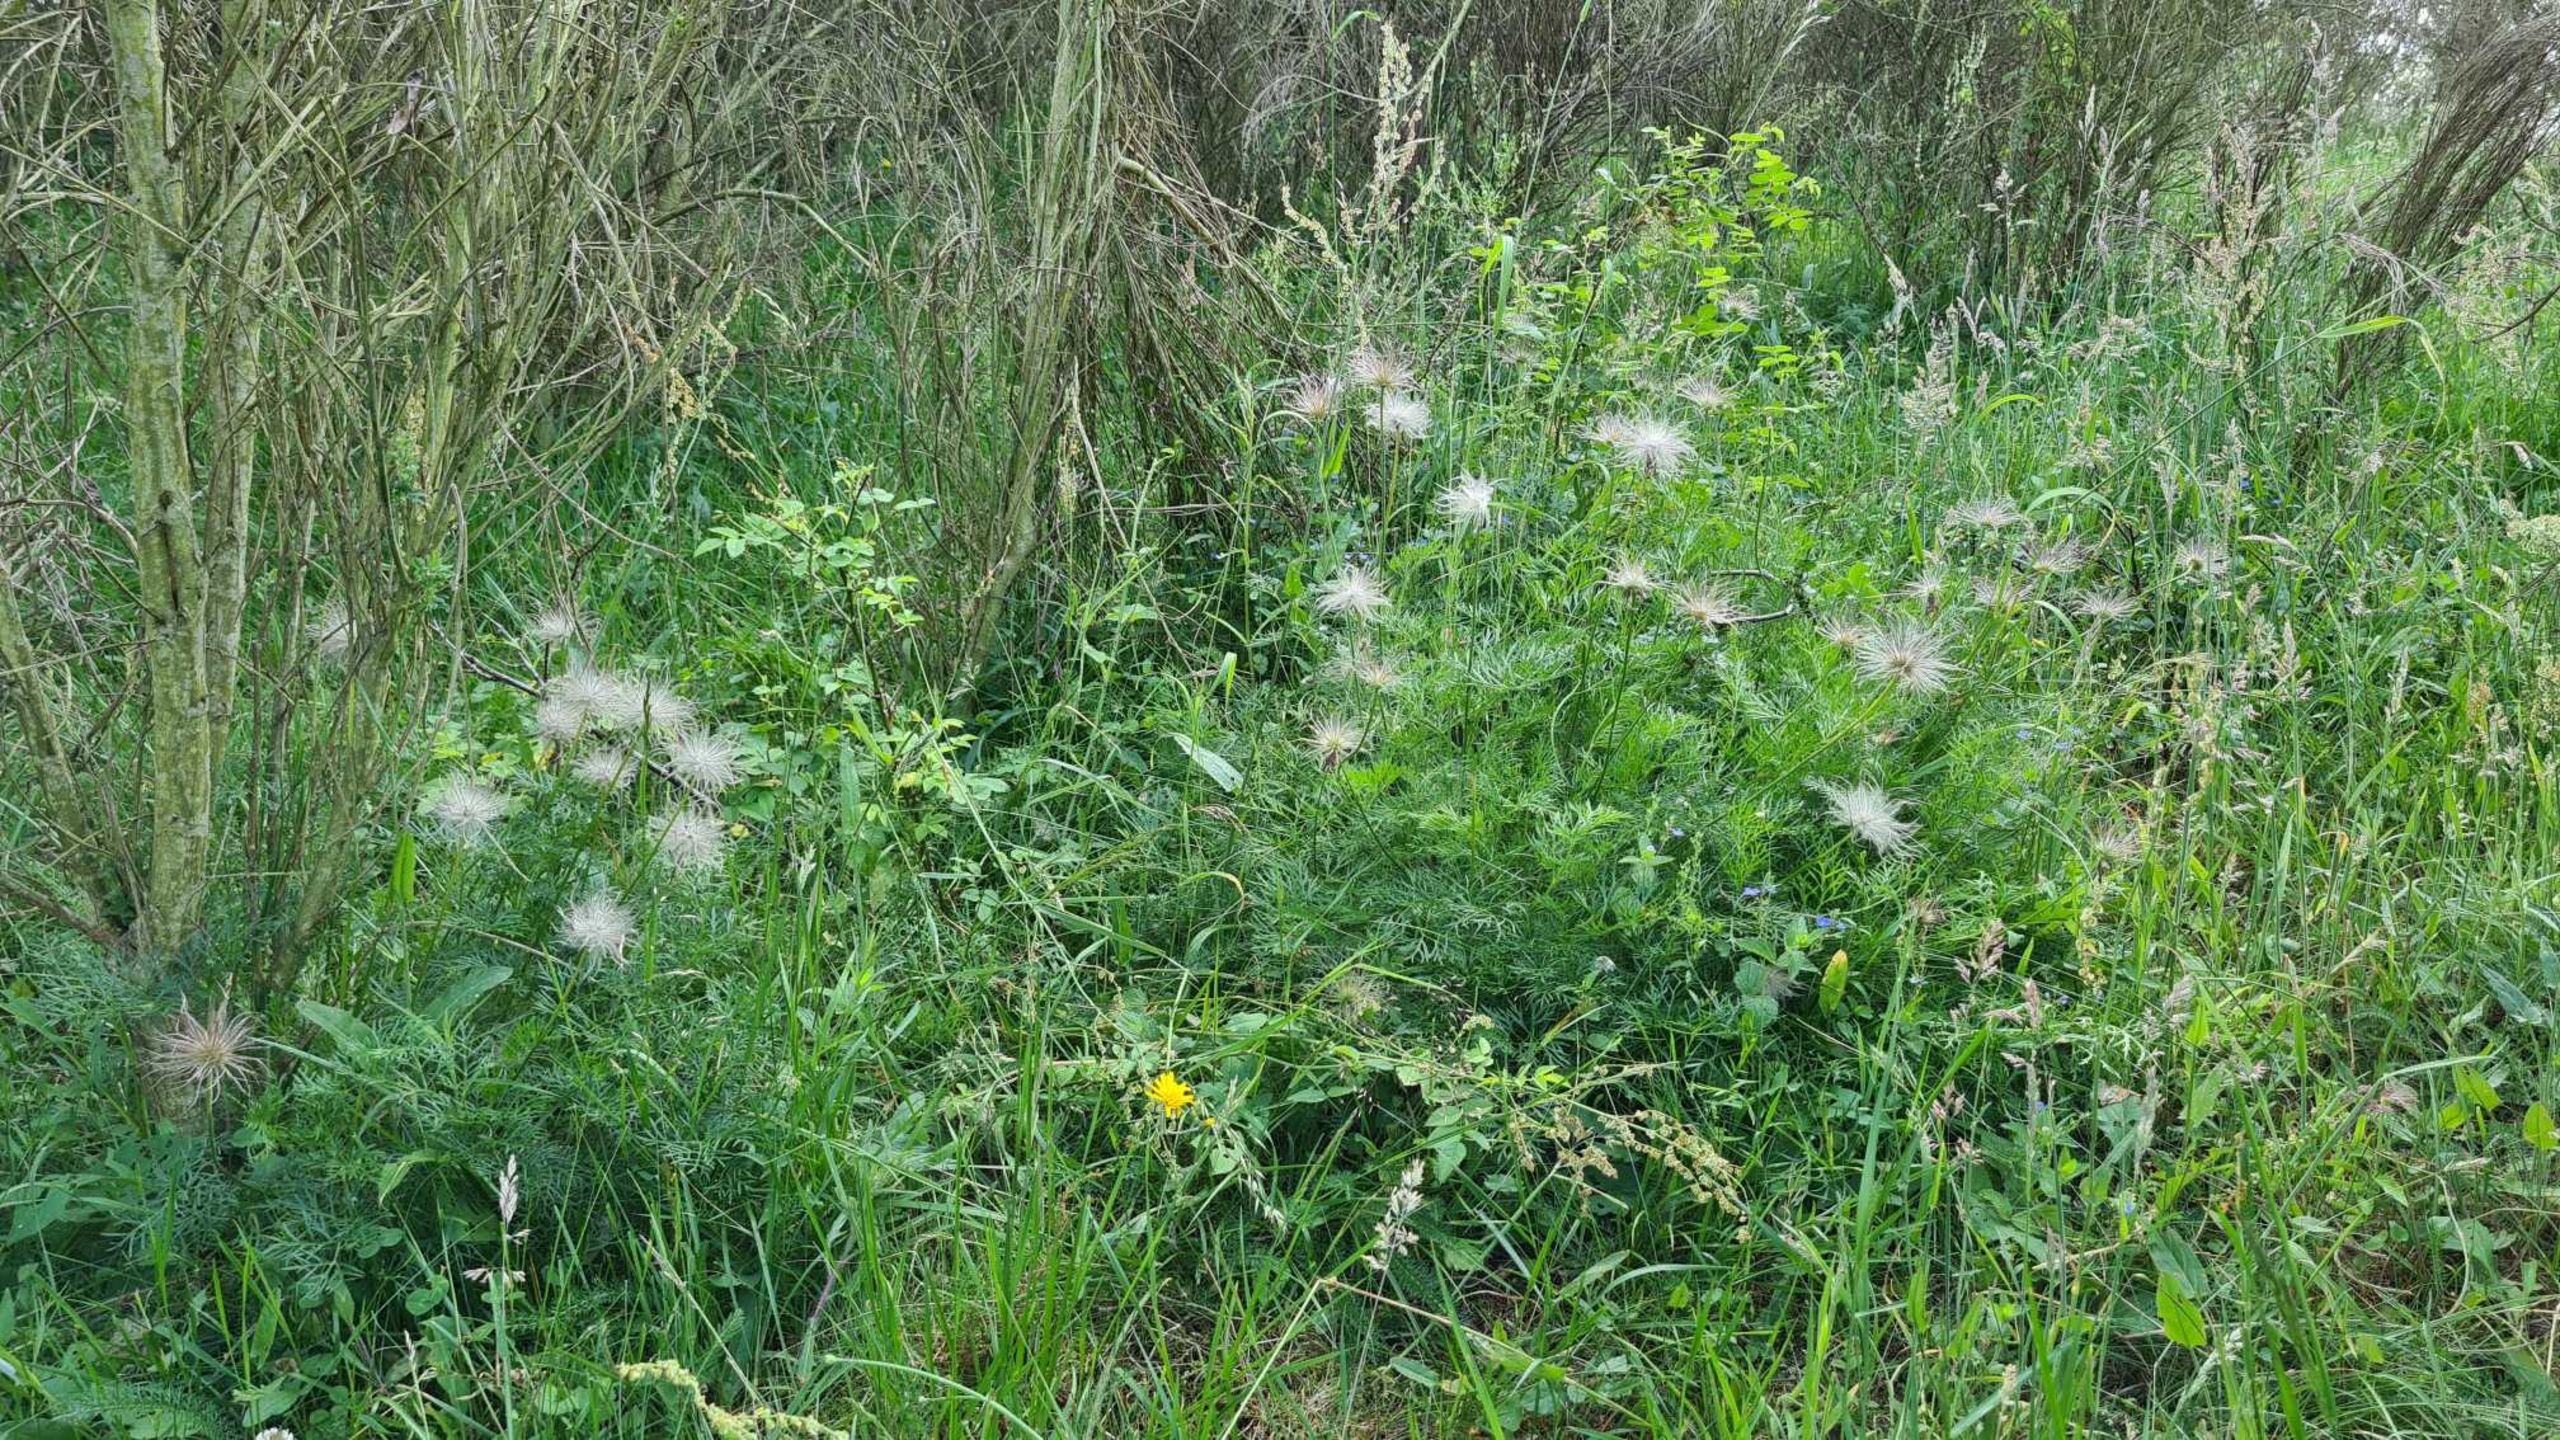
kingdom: Plantae
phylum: Tracheophyta
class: Magnoliopsida
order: Ranunculales
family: Ranunculaceae
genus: Pulsatilla
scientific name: Pulsatilla vulgaris
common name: Opret kobjælde
